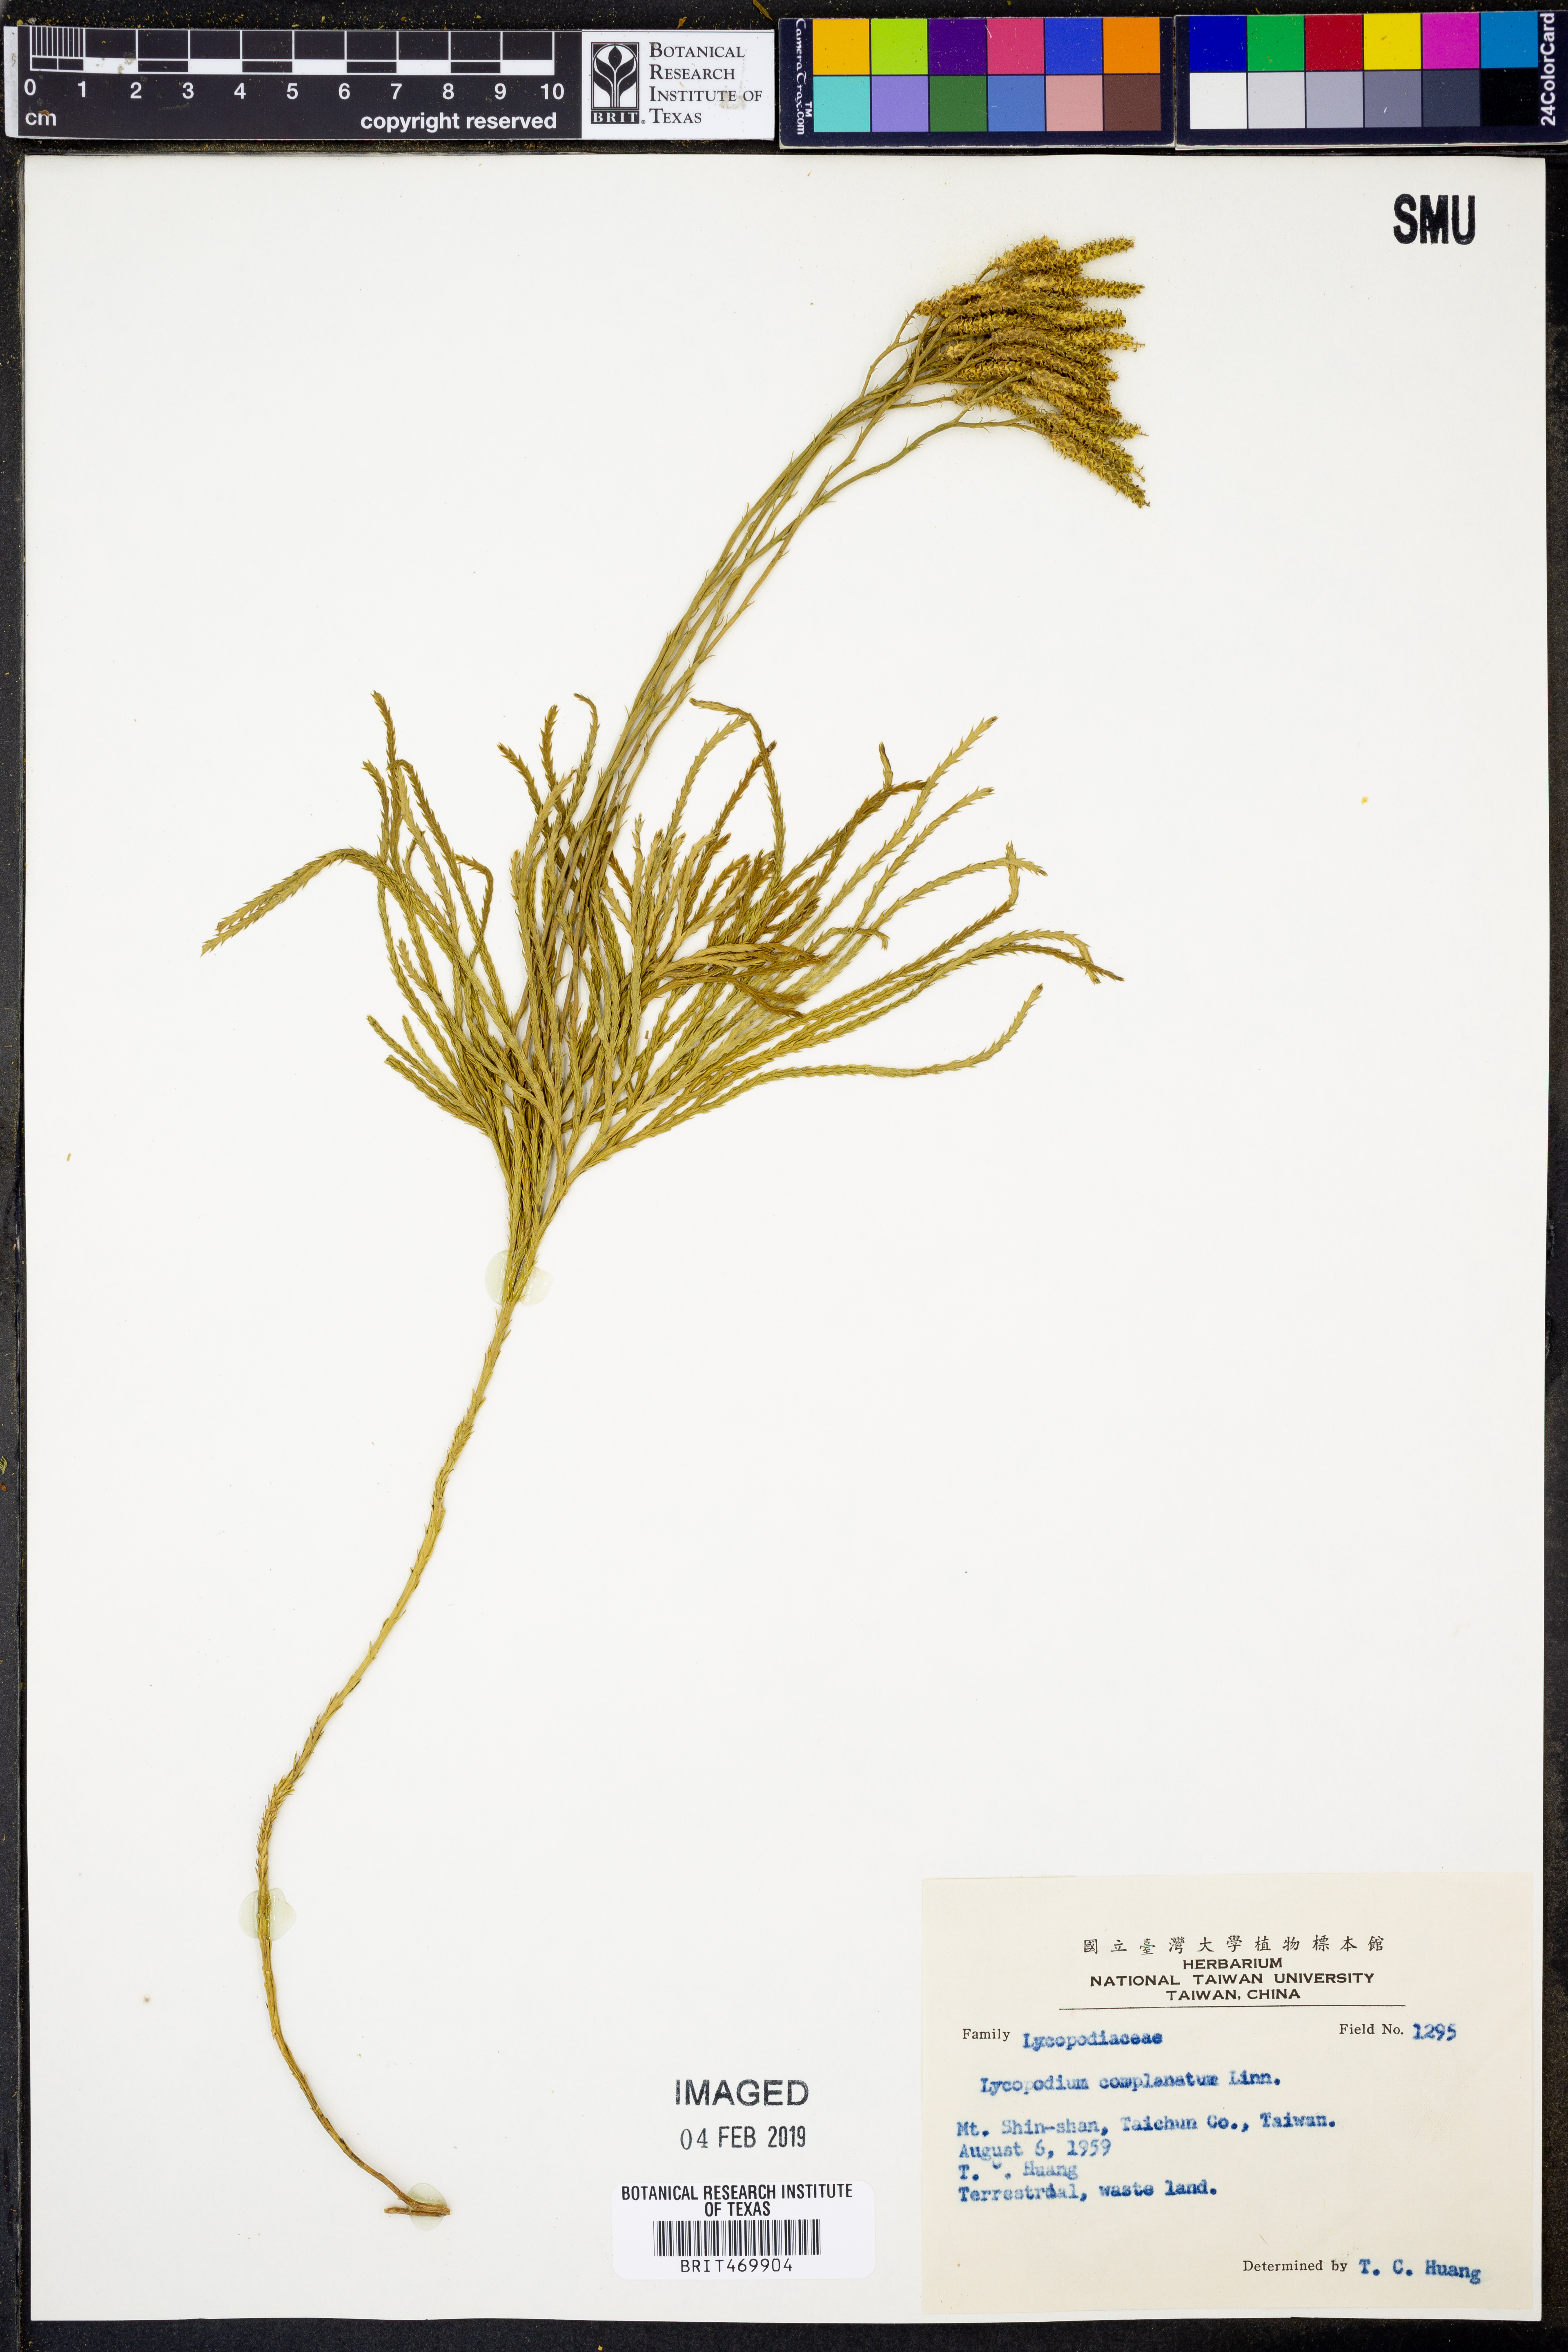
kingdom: Plantae
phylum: Tracheophyta
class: Lycopodiopsida
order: Lycopodiales
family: Lycopodiaceae
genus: Diphasiastrum
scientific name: Diphasiastrum complanatum
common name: Northern running-pine
